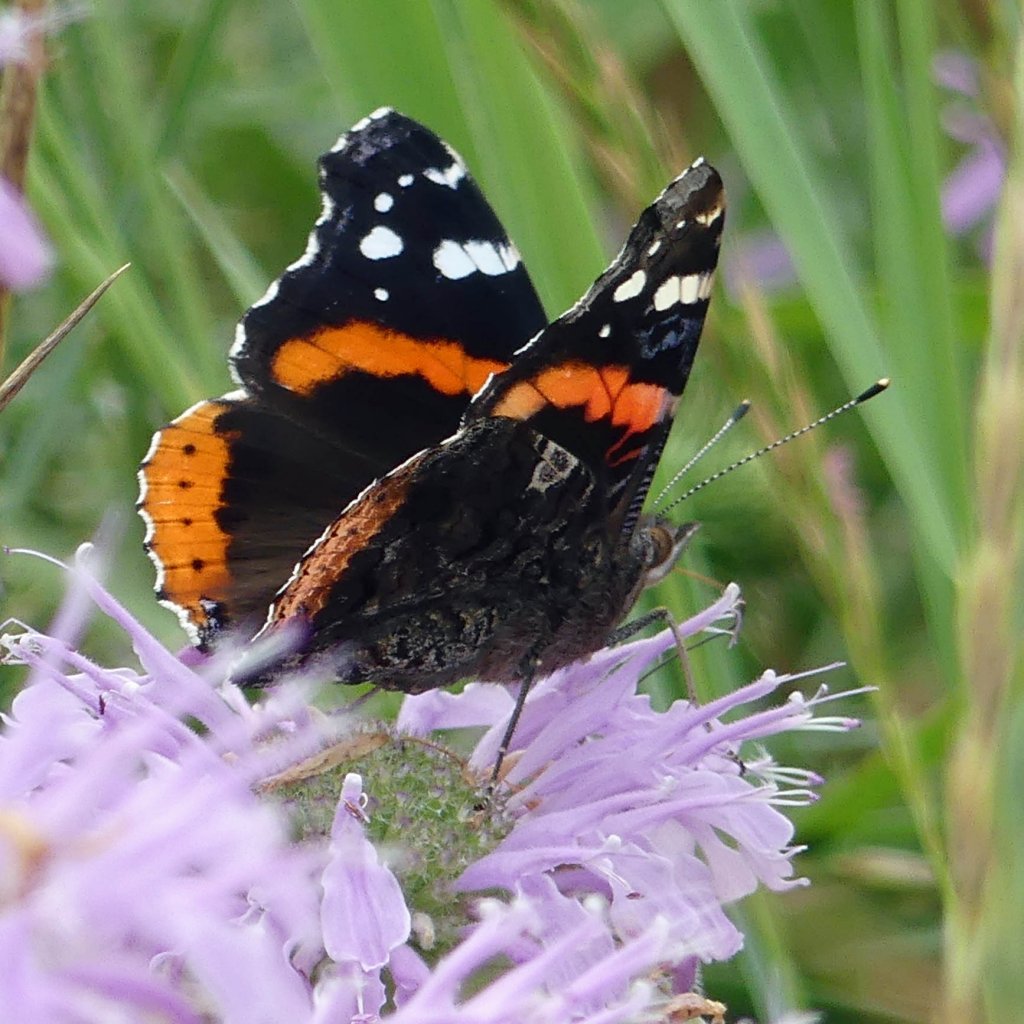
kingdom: Animalia
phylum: Arthropoda
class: Insecta
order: Lepidoptera
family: Nymphalidae
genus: Vanessa
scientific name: Vanessa atalanta
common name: Red Admiral
